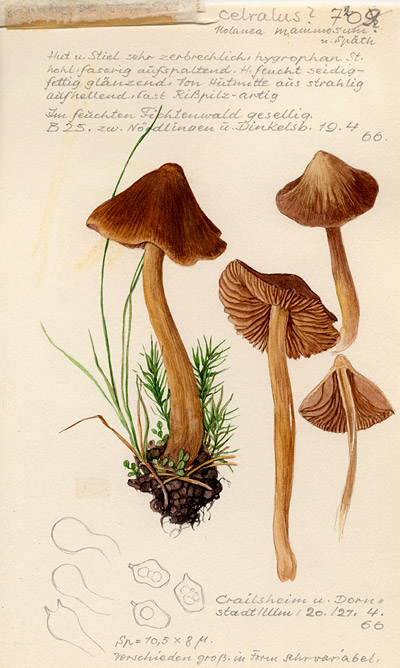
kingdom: Fungi
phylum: Basidiomycota
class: Agaricomycetes
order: Agaricales
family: Entolomataceae
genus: Entoloma
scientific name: Entoloma cetratum
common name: Honey pinkgill
